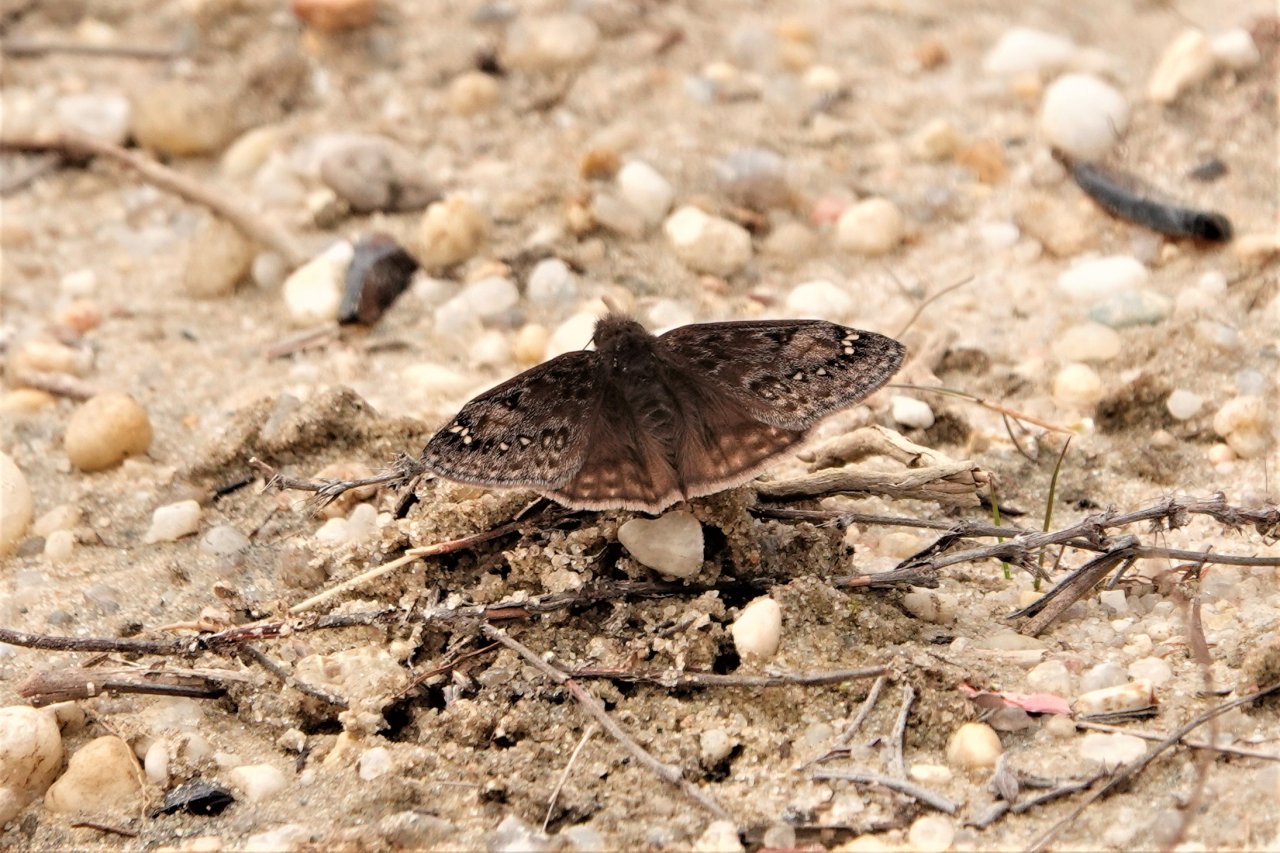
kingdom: Animalia
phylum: Arthropoda
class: Insecta
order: Lepidoptera
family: Hesperiidae
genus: Gesta
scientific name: Gesta
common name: Juvenal's Duskywing
